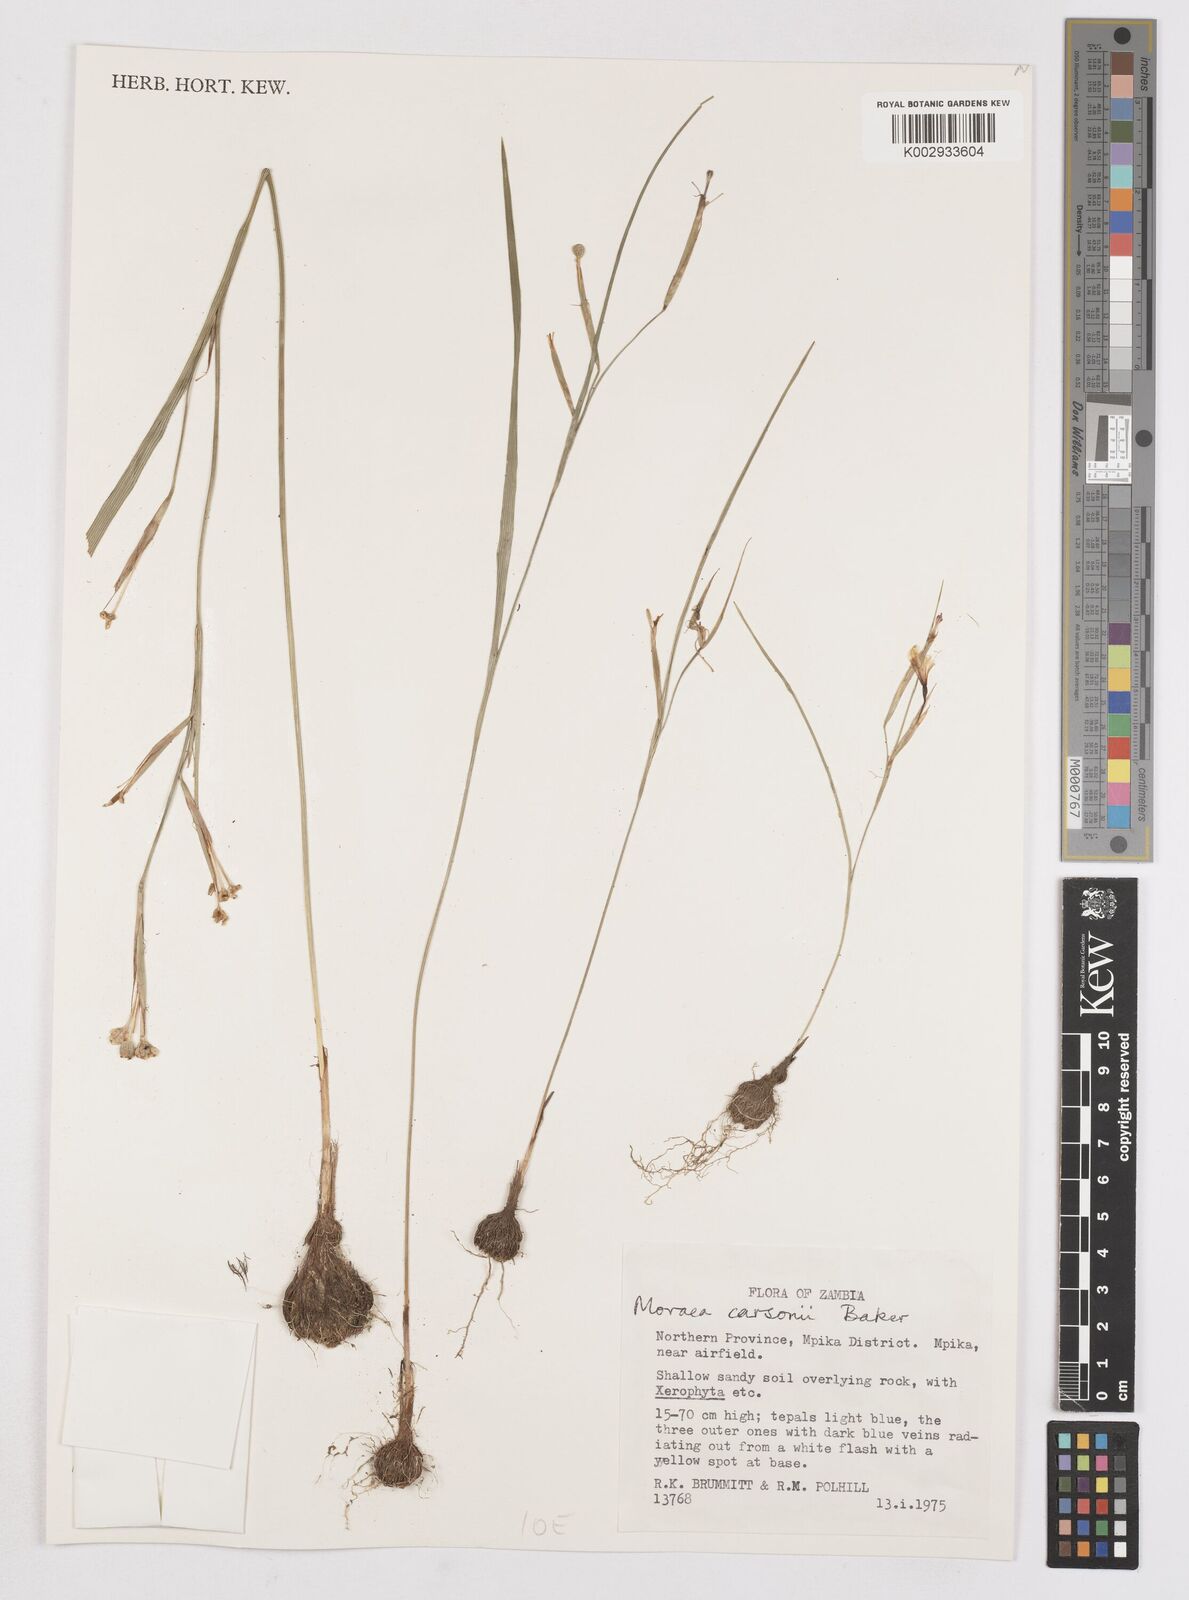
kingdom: Plantae
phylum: Tracheophyta
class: Liliopsida
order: Asparagales
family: Iridaceae
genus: Moraea
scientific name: Moraea carsonii
